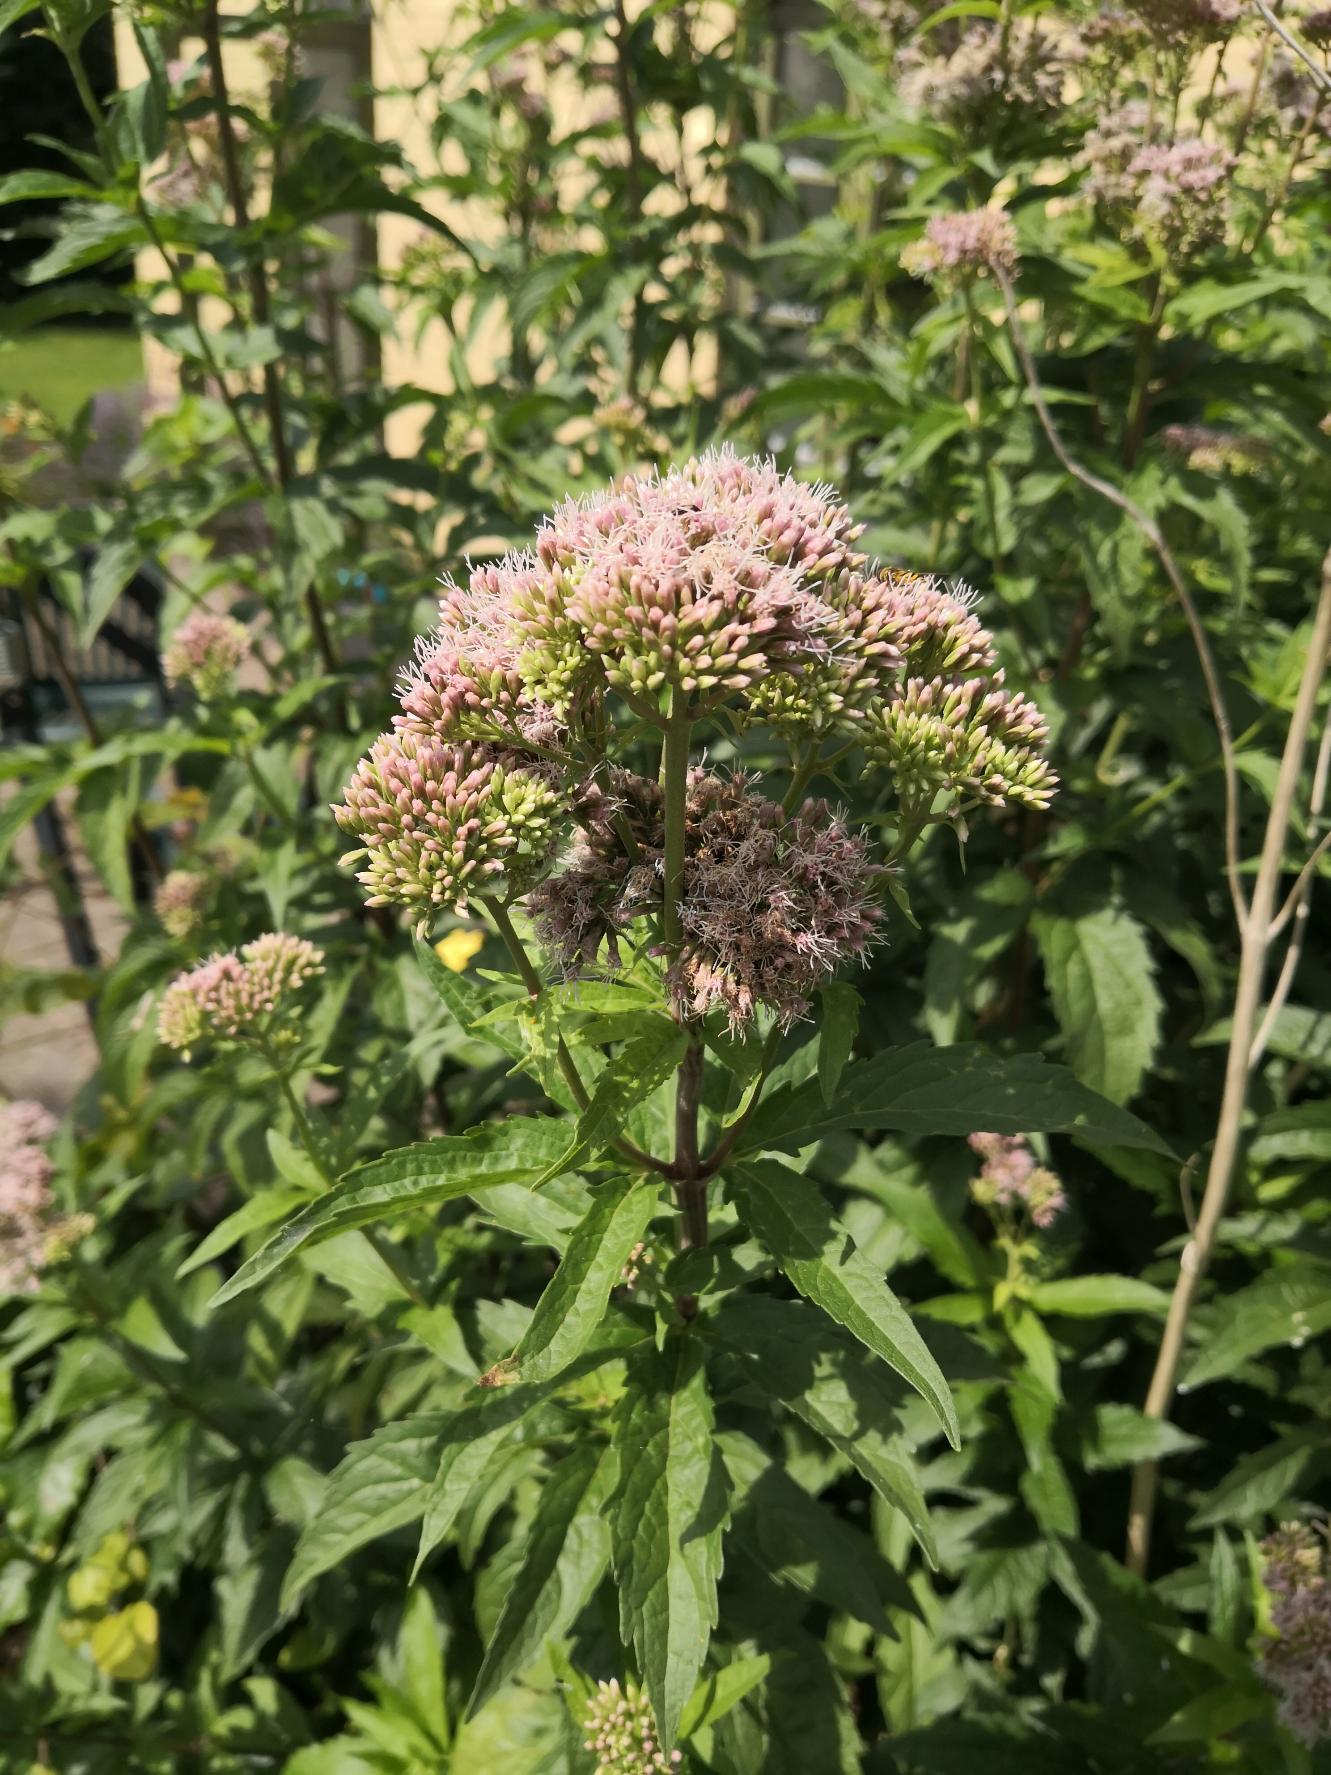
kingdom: Plantae
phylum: Tracheophyta
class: Magnoliopsida
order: Asterales
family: Asteraceae
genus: Eupatorium
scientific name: Eupatorium cannabinum
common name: Hjortetrøst
